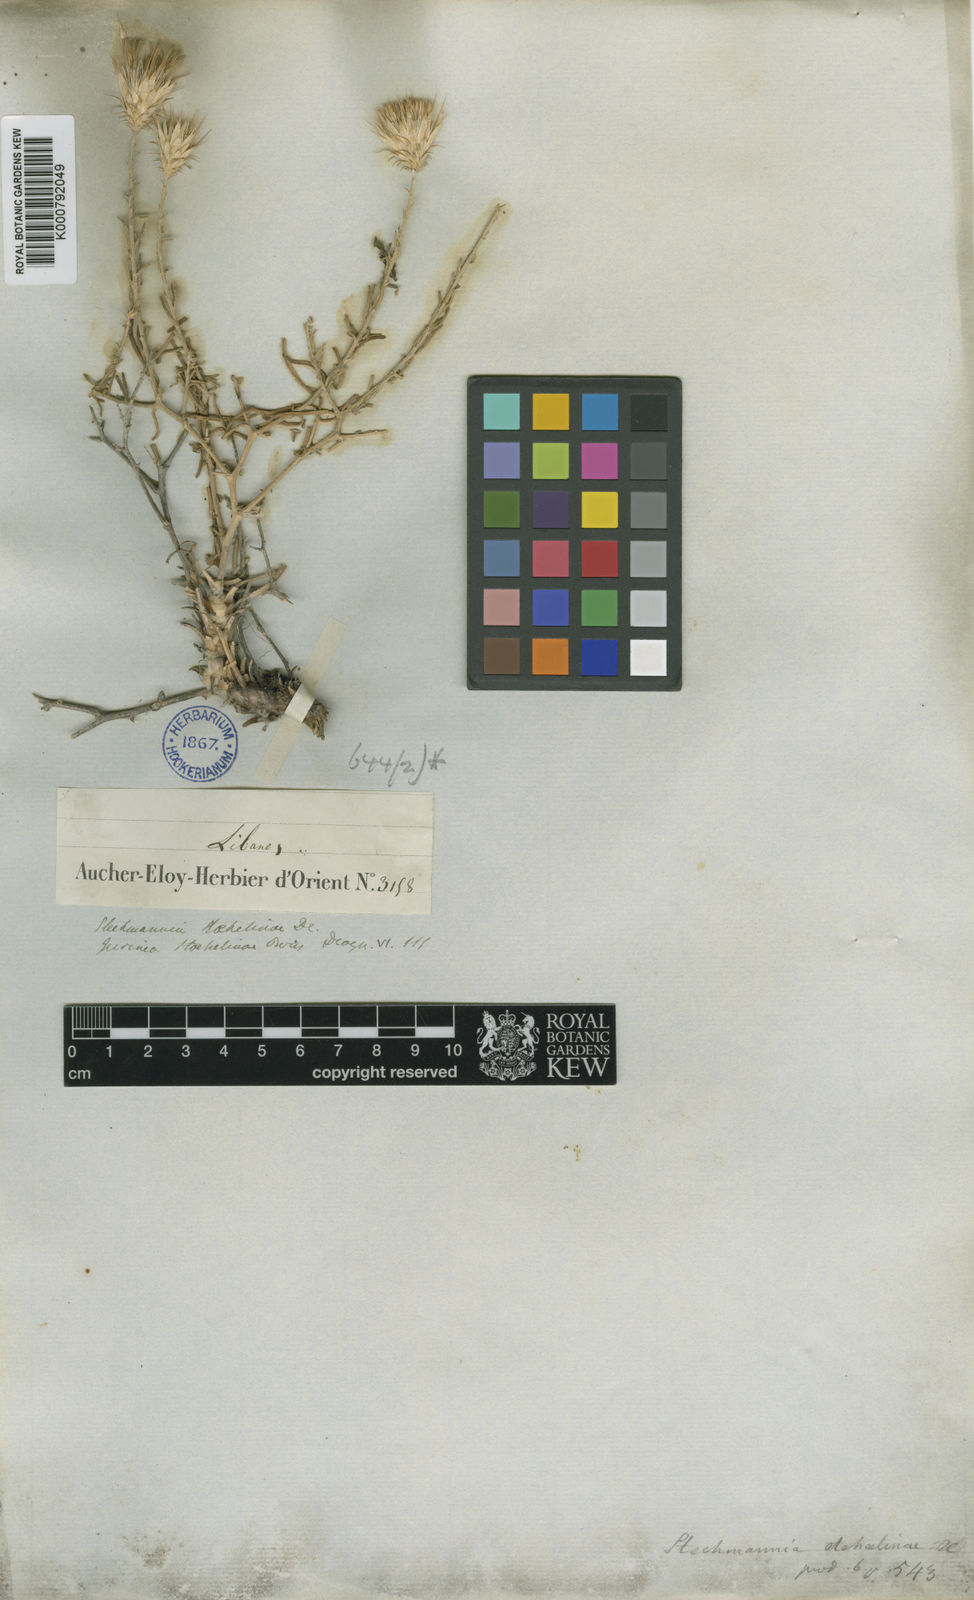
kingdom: Plantae
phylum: Tracheophyta
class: Magnoliopsida
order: Asterales
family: Asteraceae
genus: Jurinea
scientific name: Jurinea staehelinae
